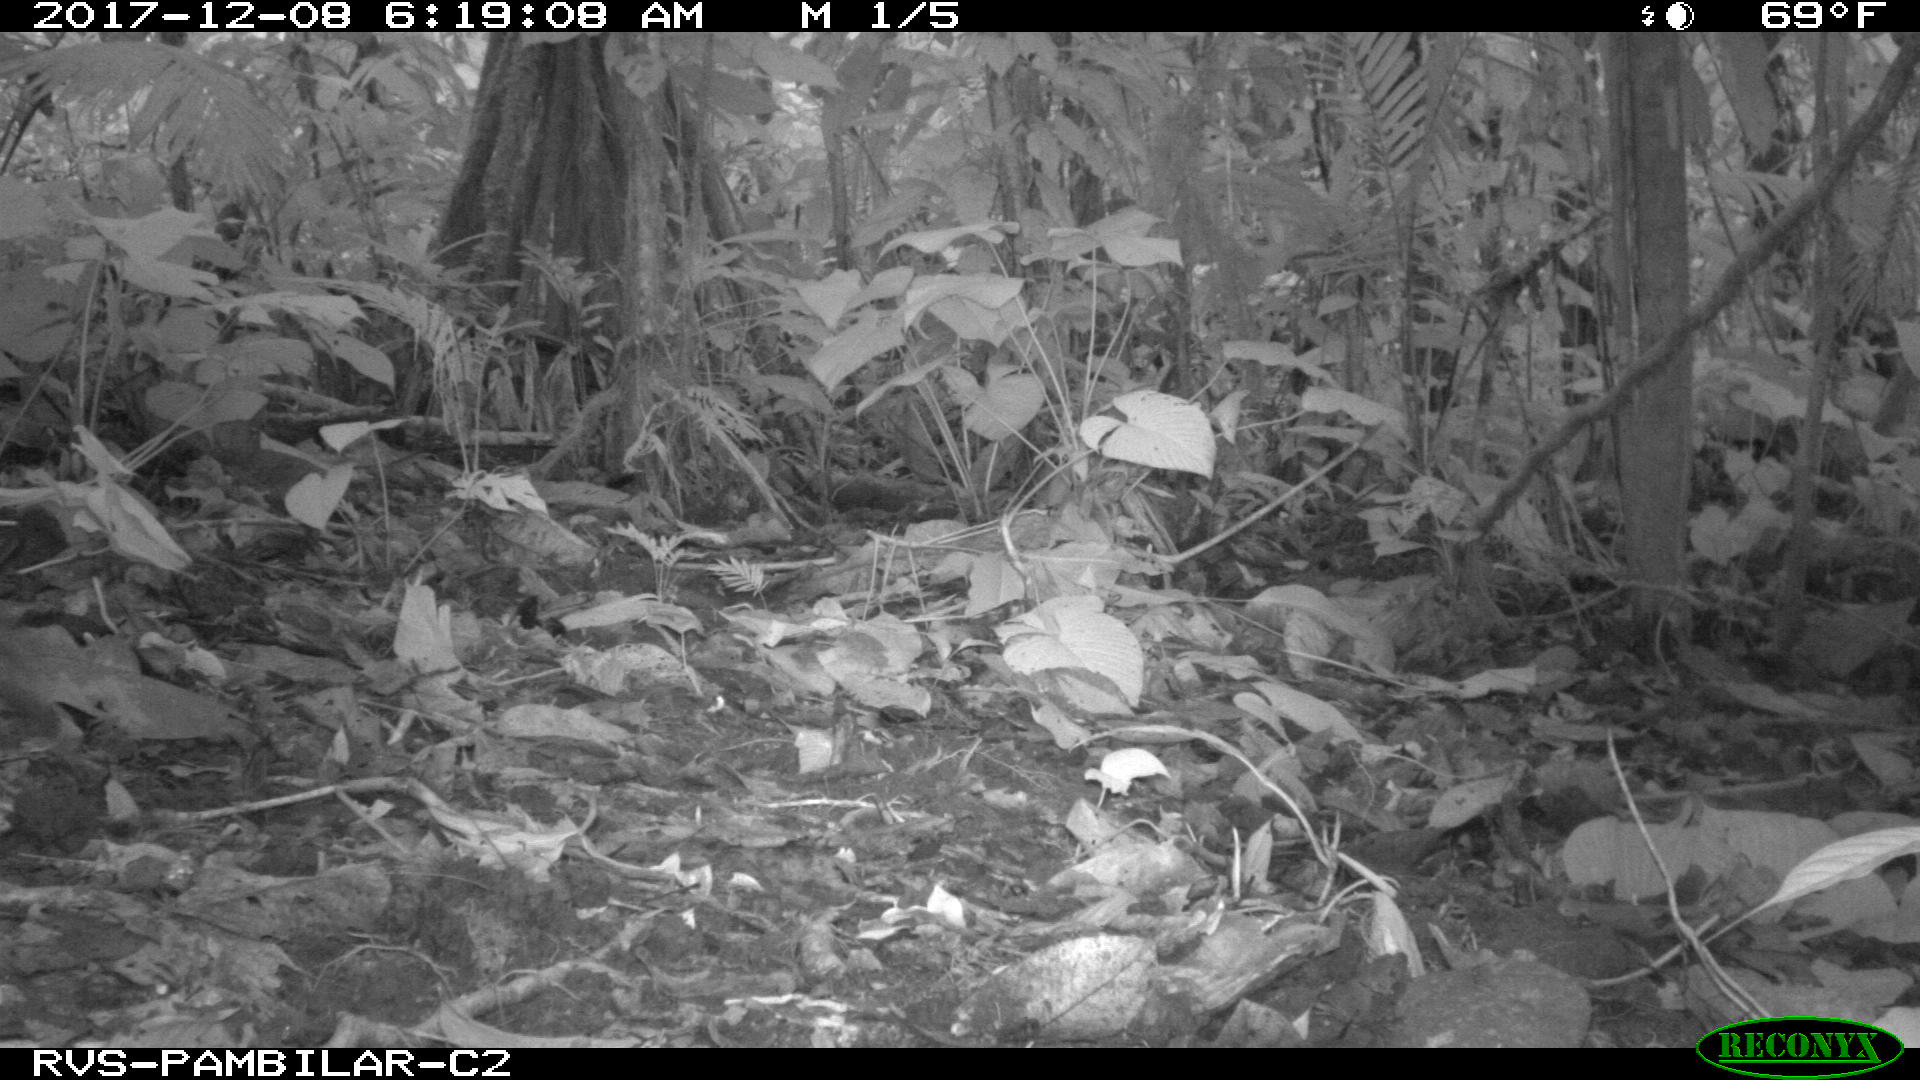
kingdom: Animalia
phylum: Chordata
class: Mammalia
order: Rodentia
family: Dasyproctidae
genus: Dasyprocta
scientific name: Dasyprocta punctata
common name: Central american agouti
